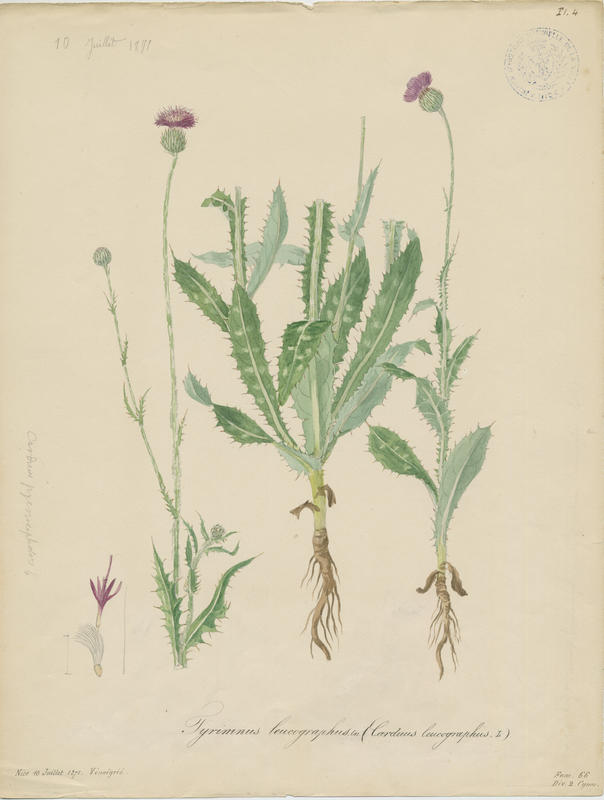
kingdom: Plantae
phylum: Tracheophyta
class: Magnoliopsida
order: Asterales
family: Asteraceae
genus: Tyrimnus
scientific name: Tyrimnus leucographus
